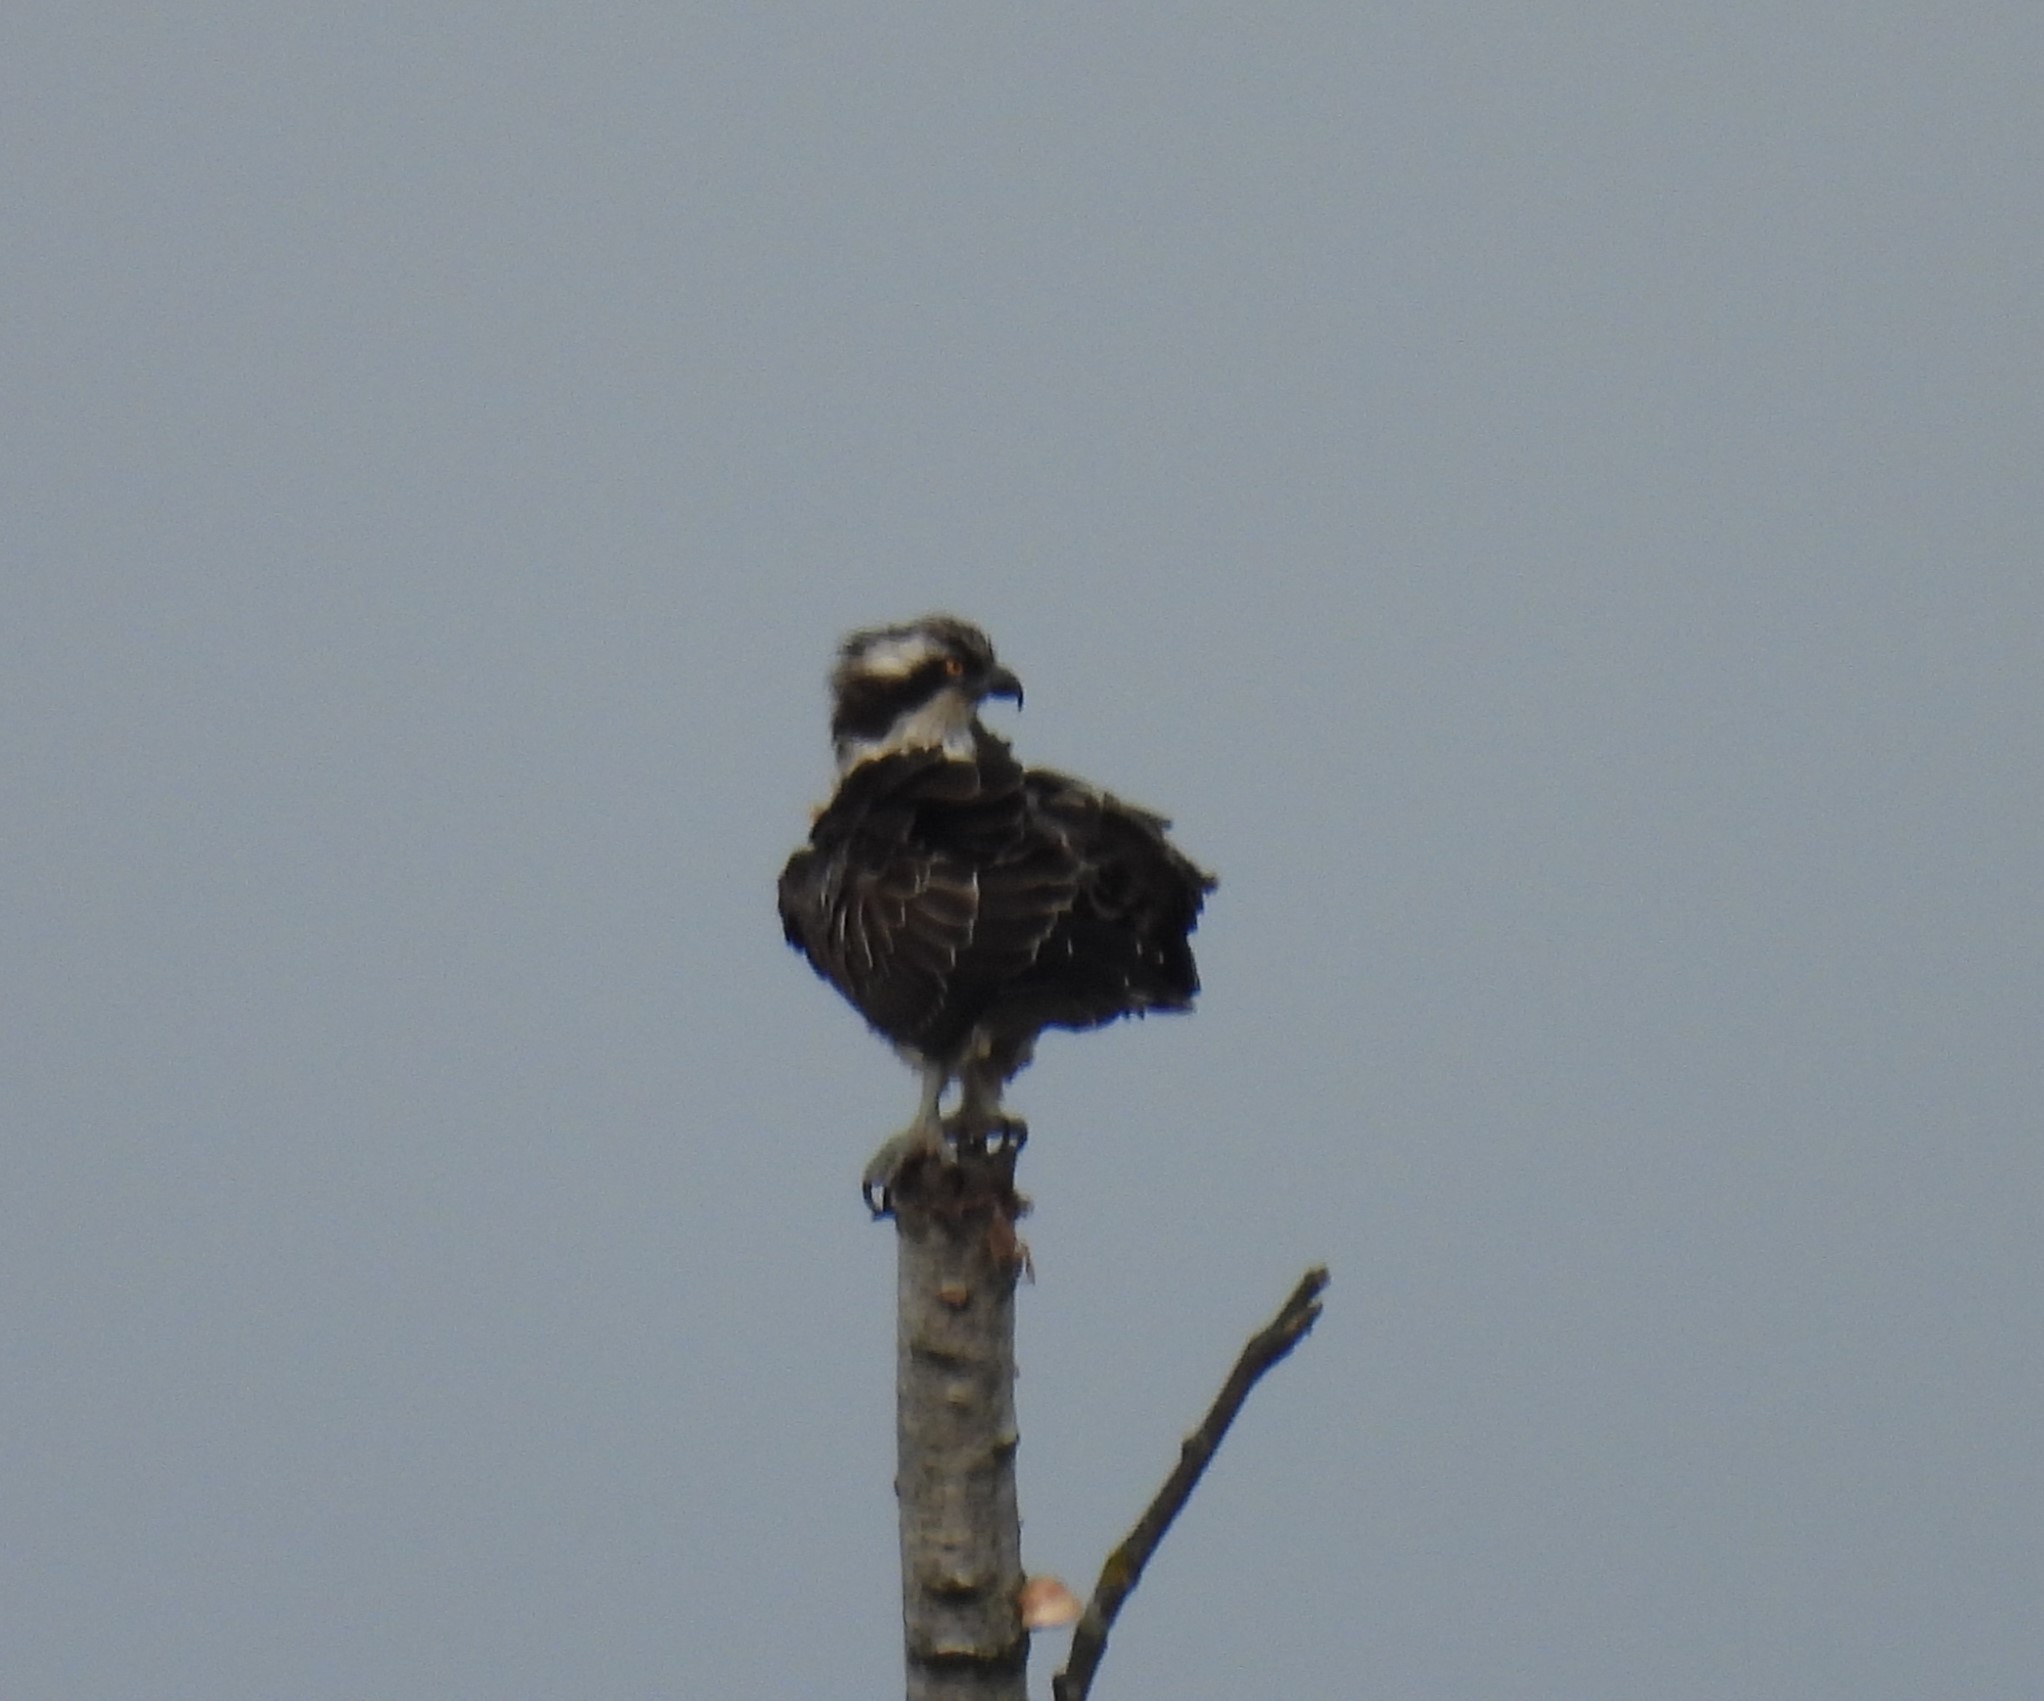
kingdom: Animalia
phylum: Chordata
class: Aves
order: Accipitriformes
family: Pandionidae
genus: Pandion
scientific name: Pandion haliaetus
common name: Fiskeørn
